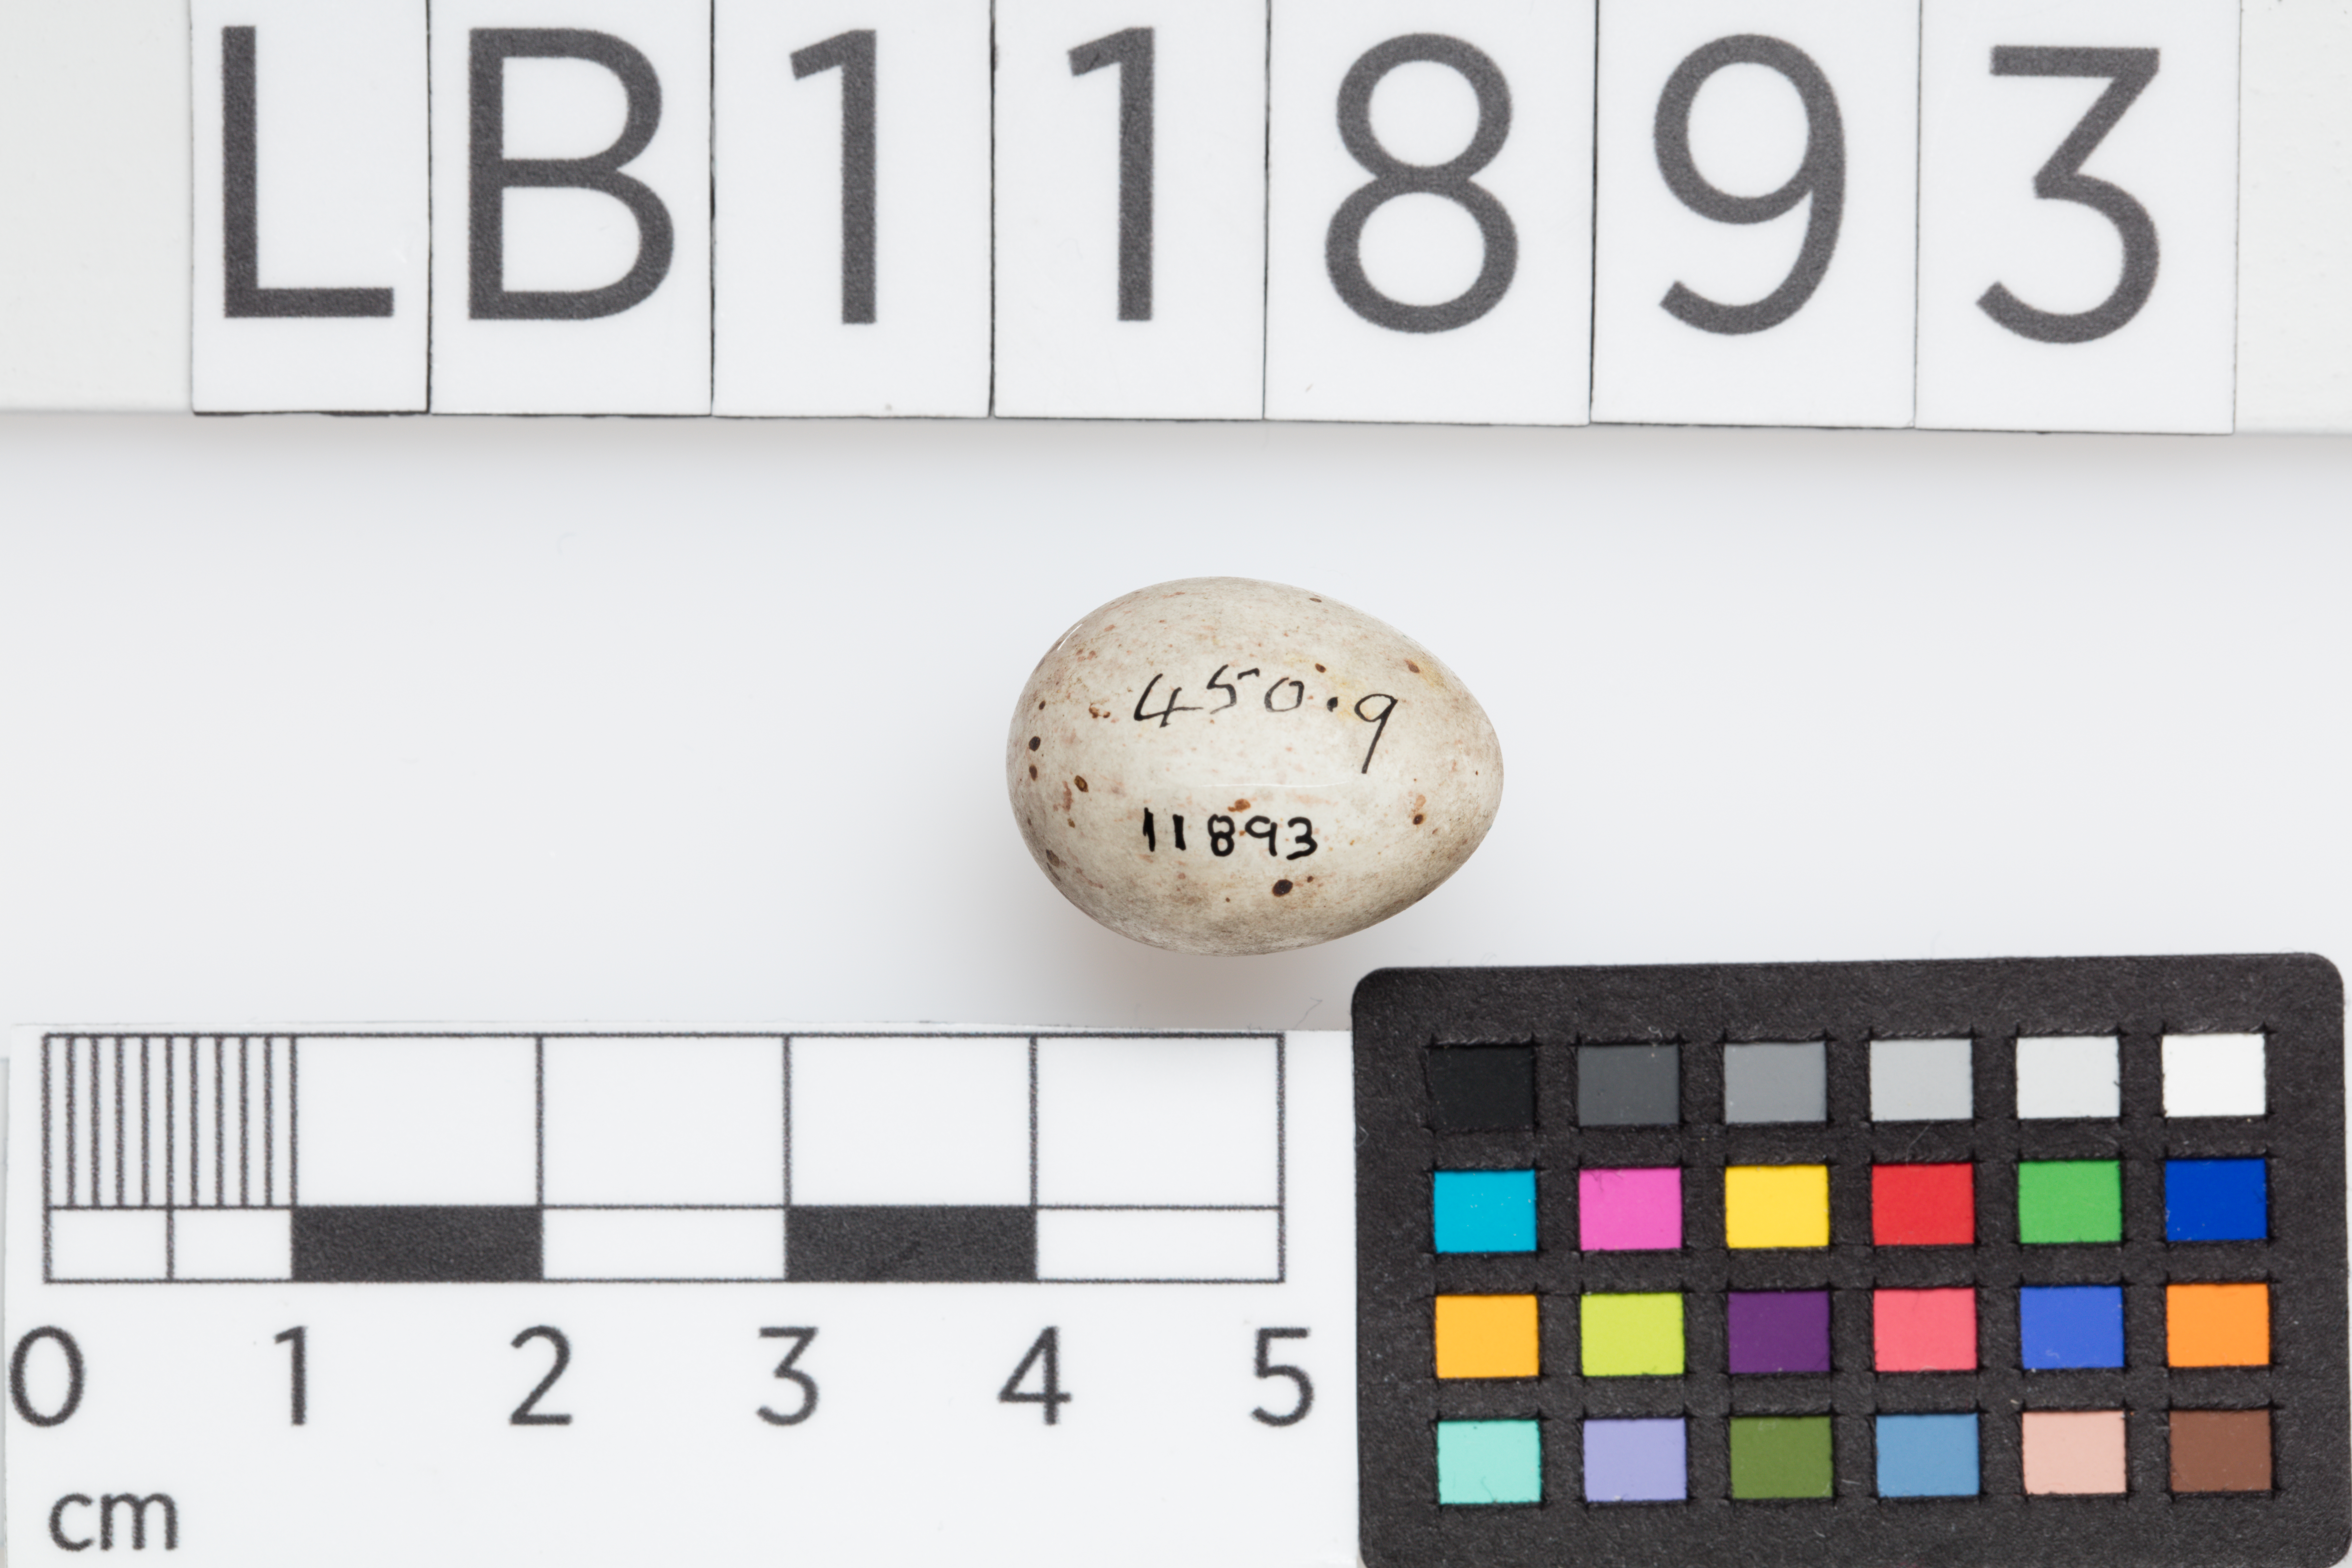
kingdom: Animalia
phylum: Chordata
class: Aves
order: Passeriformes
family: Fringillidae
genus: Linaria
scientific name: Linaria cannabina
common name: Common linnet
